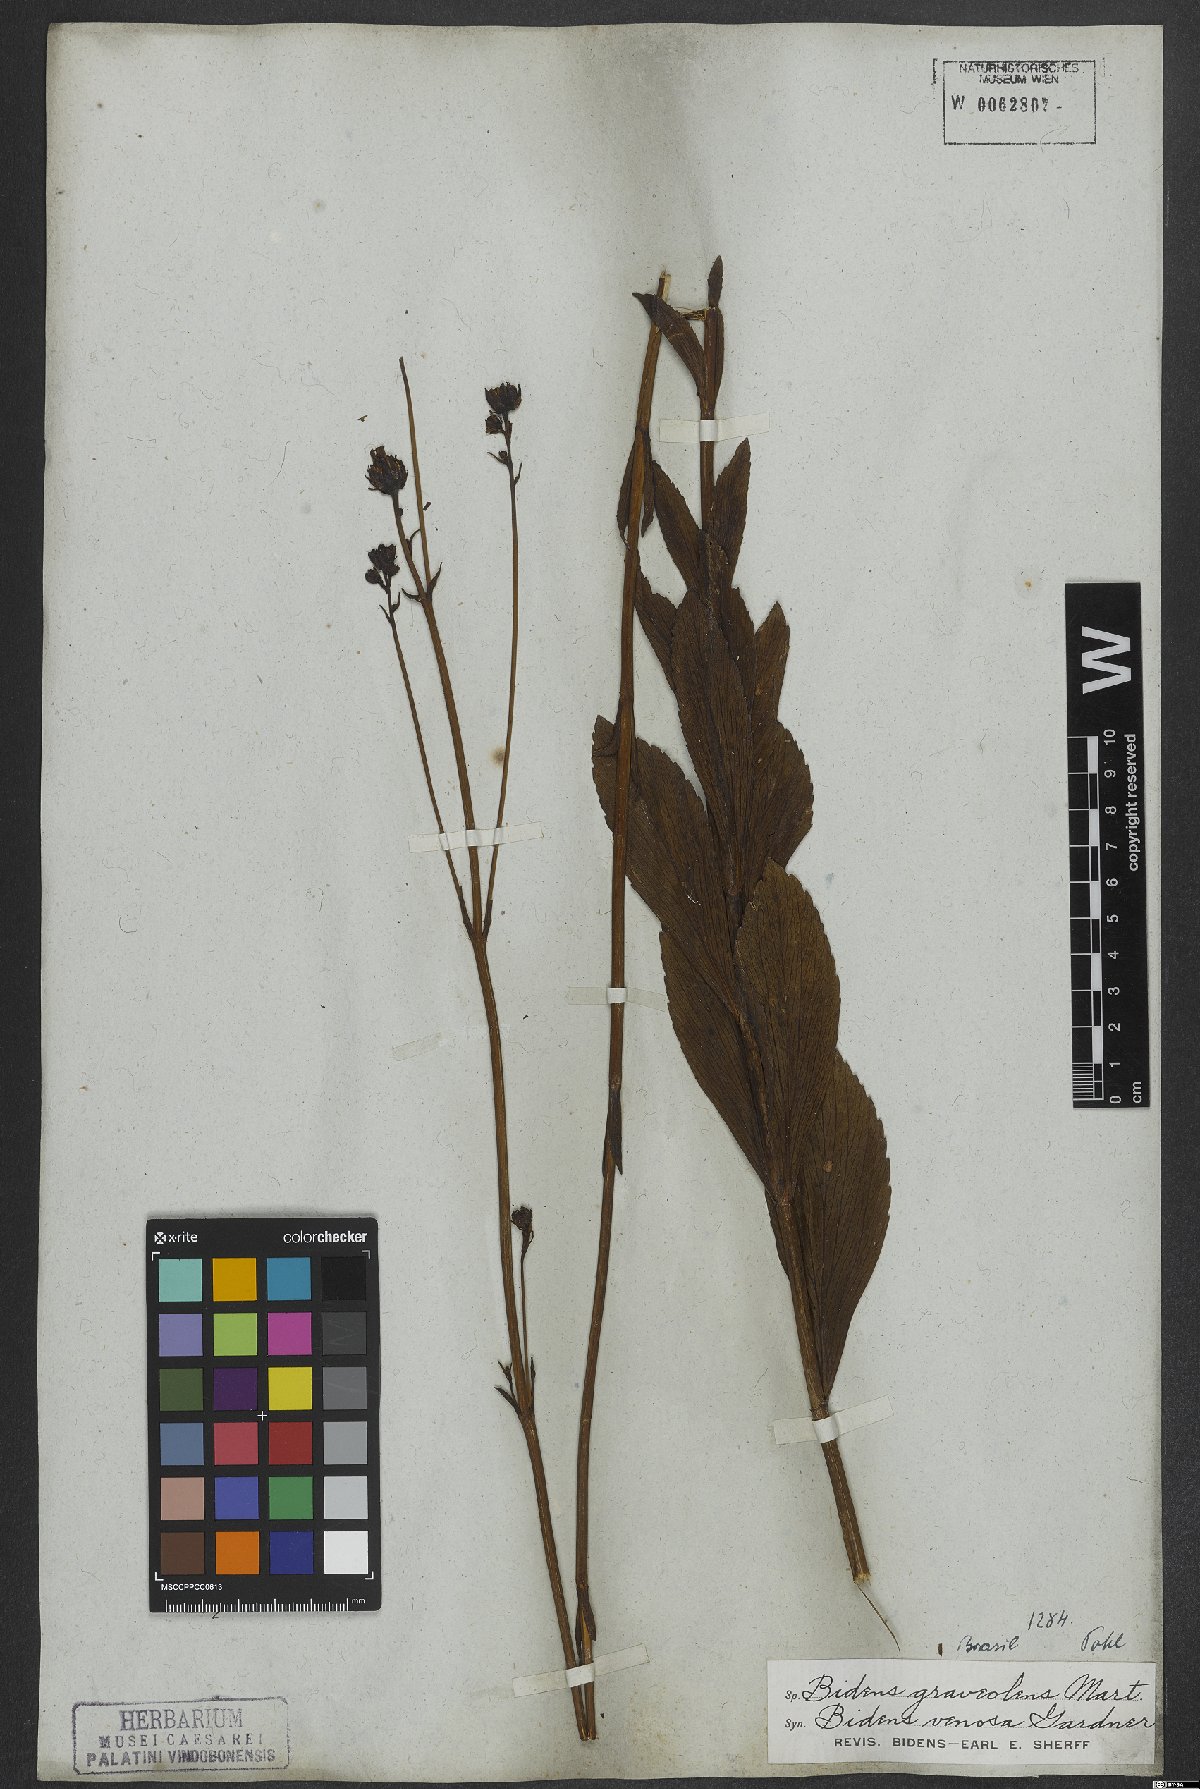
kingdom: Plantae
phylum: Tracheophyta
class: Magnoliopsida
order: Asterales
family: Asteraceae
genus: Bidens
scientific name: Bidens graveolens
